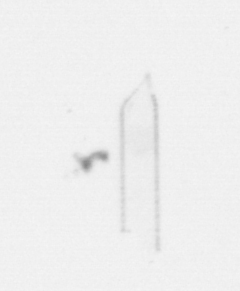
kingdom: Chromista
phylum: Ochrophyta
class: Bacillariophyceae
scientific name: Bacillariophyceae
